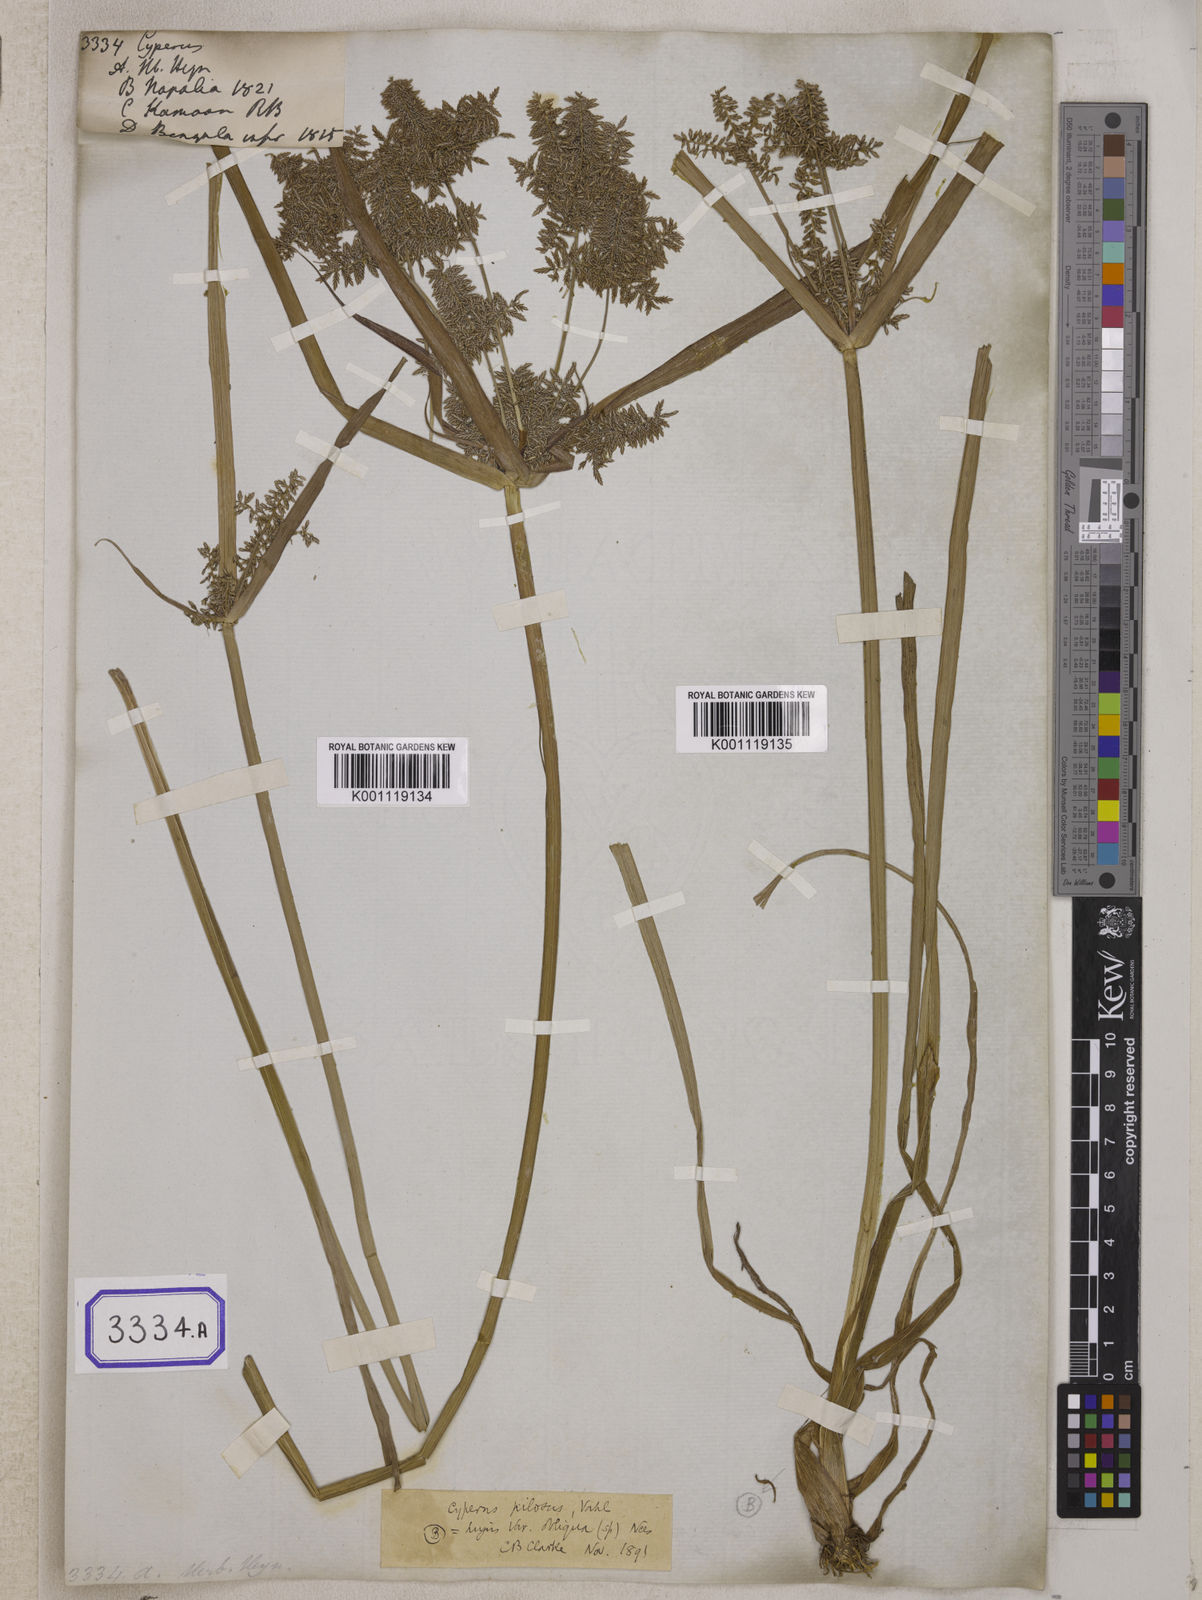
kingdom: Plantae
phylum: Tracheophyta
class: Liliopsida
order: Poales
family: Cyperaceae
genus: Cyperus
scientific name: Cyperus
